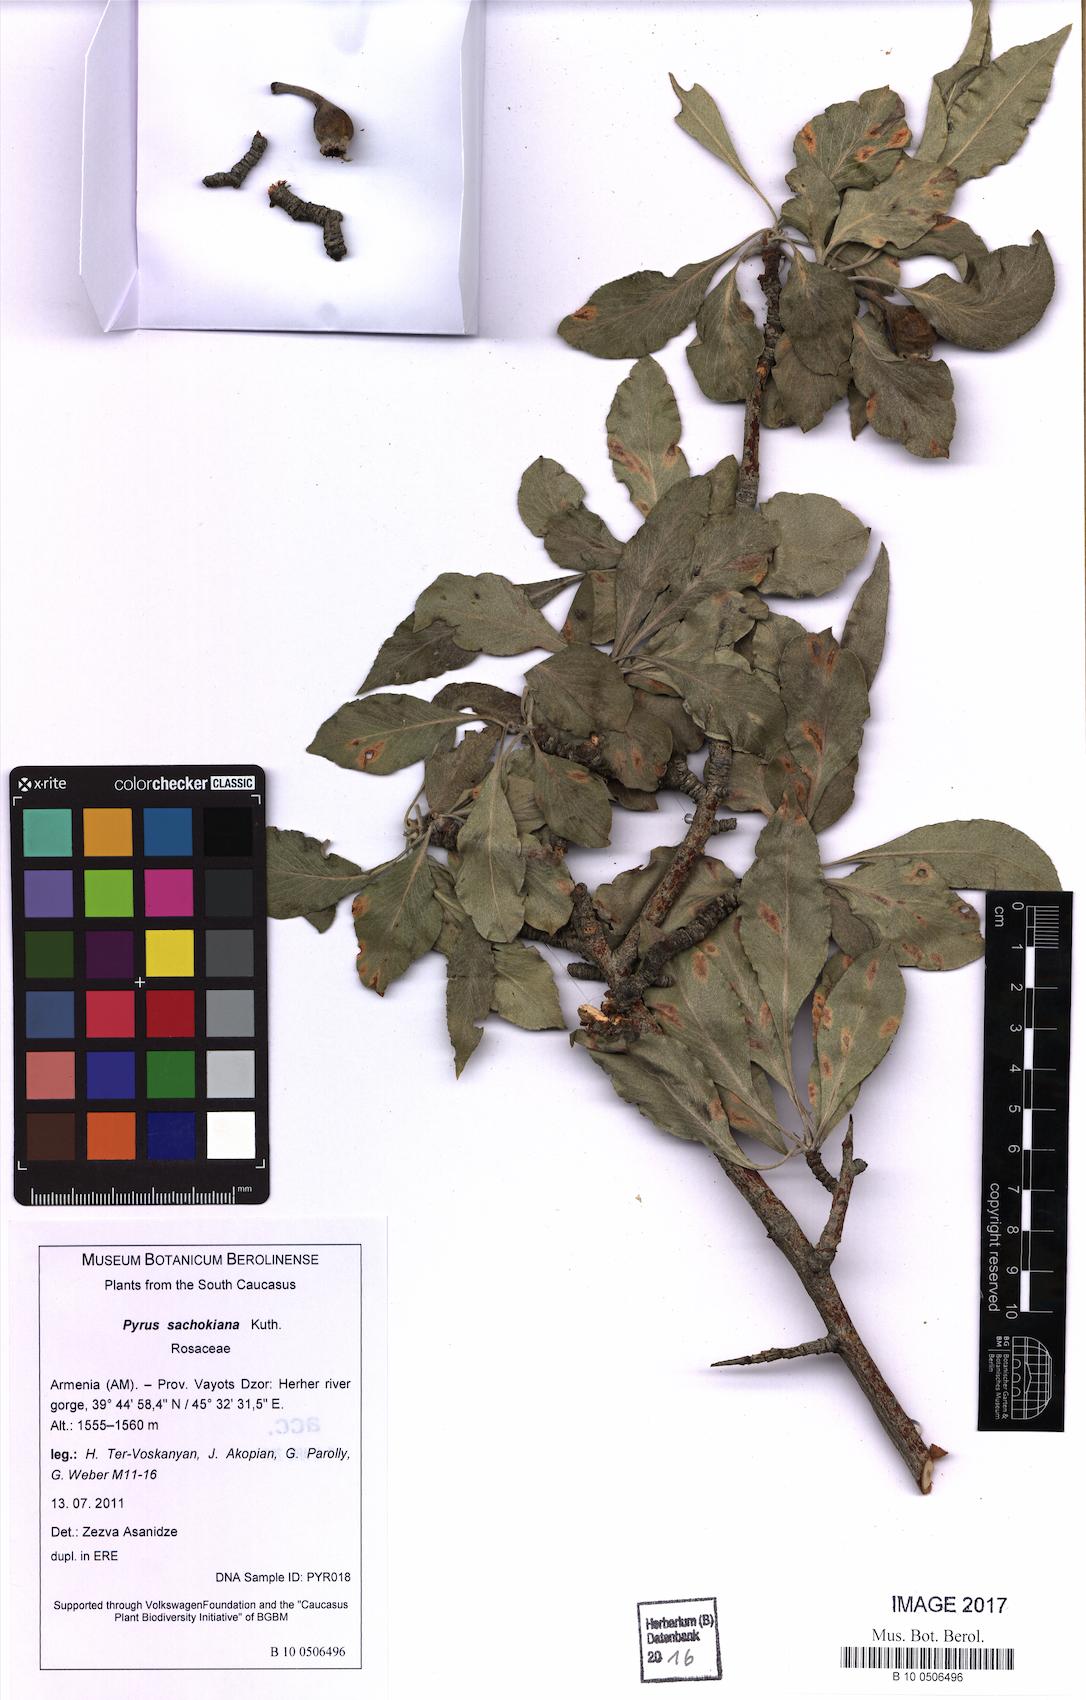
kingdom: Plantae
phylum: Tracheophyta
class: Magnoliopsida
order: Rosales
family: Rosaceae
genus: Pyrus
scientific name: Pyrus sachokiana
